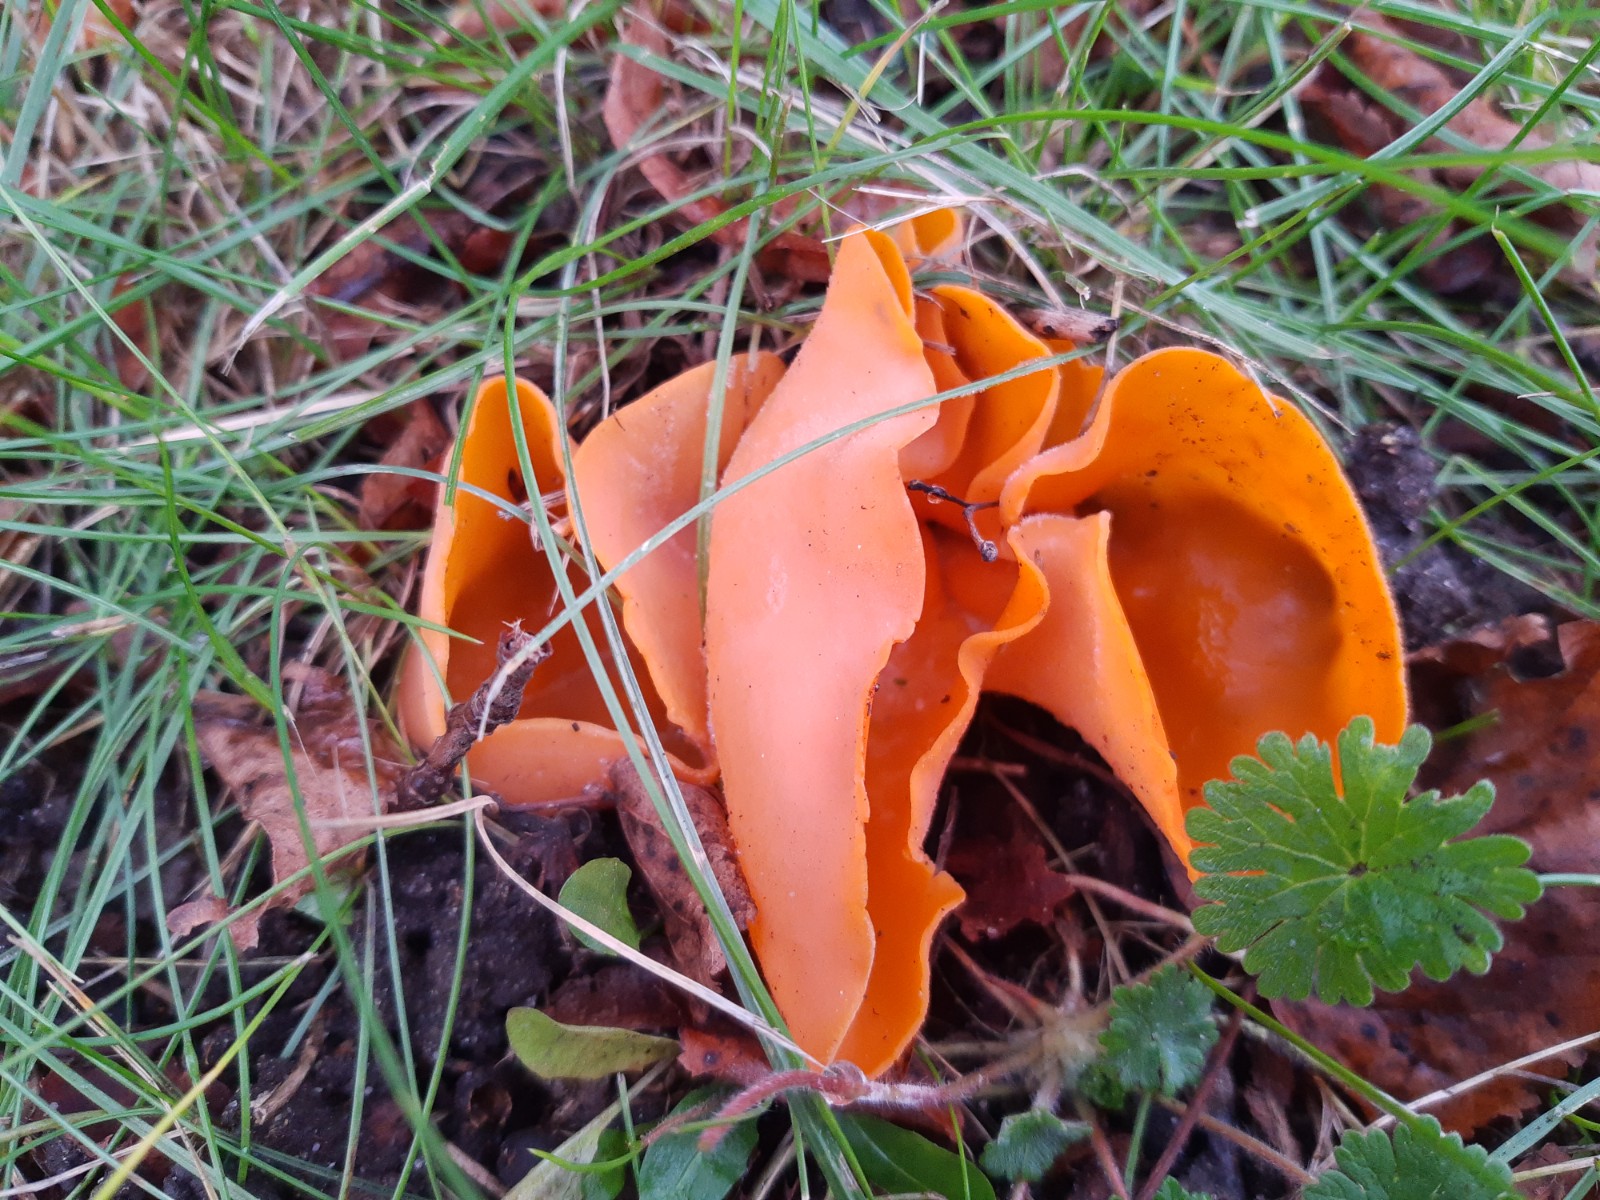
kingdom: Fungi
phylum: Ascomycota
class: Pezizomycetes
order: Pezizales
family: Pyronemataceae
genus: Aleuria
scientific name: Aleuria aurantia
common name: almindelig orangebæger
